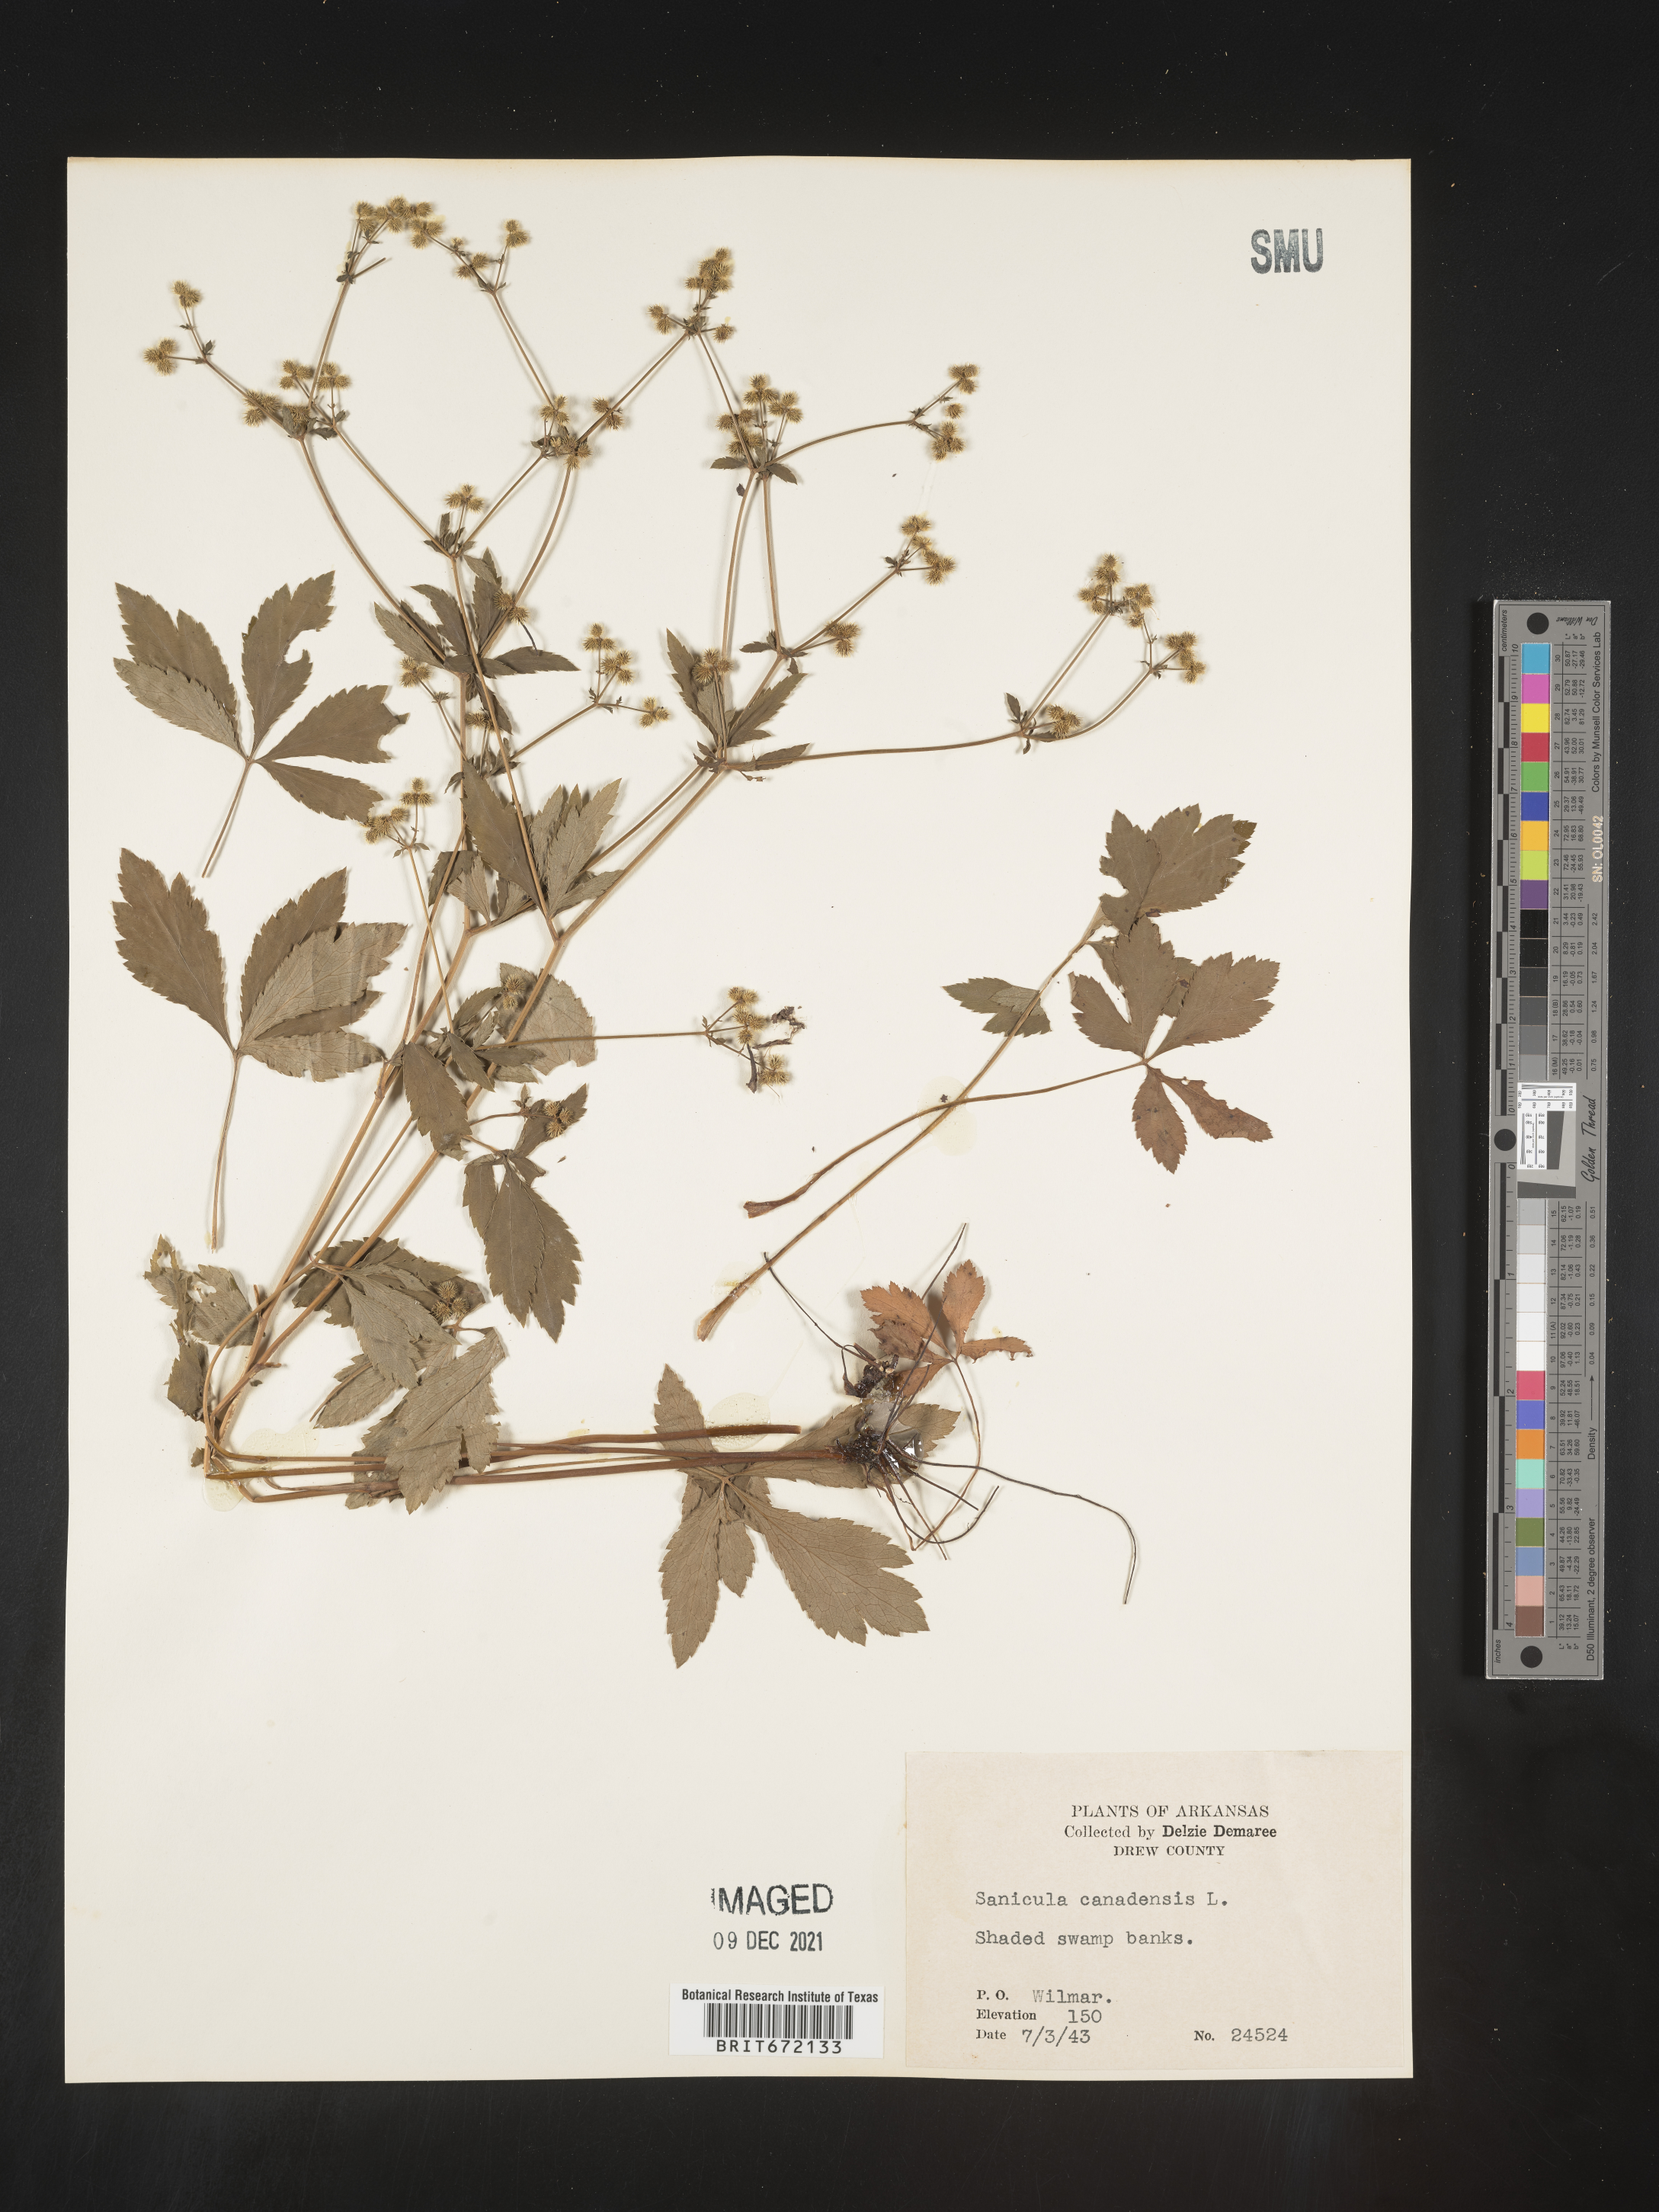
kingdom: Plantae
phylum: Tracheophyta
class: Magnoliopsida
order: Apiales
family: Apiaceae
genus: Sanicula
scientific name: Sanicula canadensis
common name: Canada sanicle
